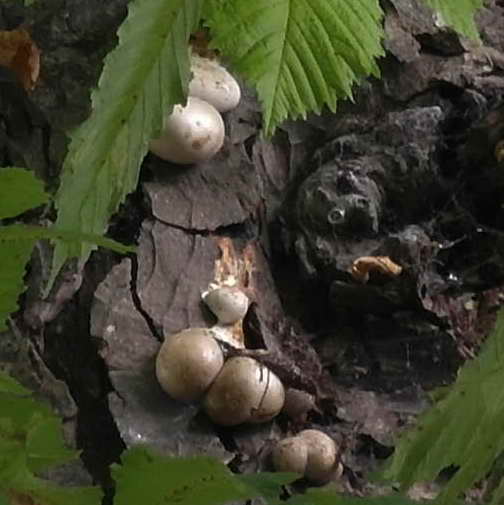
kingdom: Protozoa
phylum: Mycetozoa
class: Myxomycetes
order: Cribrariales
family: Tubiferaceae
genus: Lycogala
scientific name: Lycogala flavofuscum
